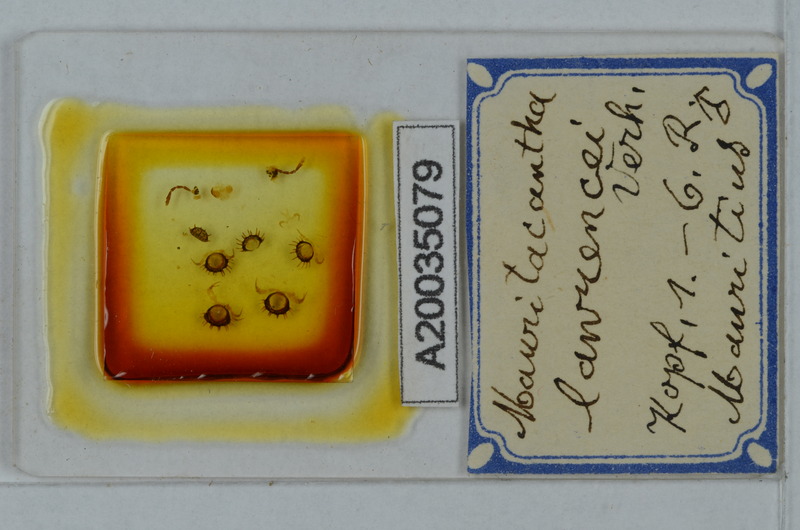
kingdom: Animalia
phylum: Arthropoda
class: Diplopoda
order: Polydesmida
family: Trichopolydesmidae
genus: Mauritacantha
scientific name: Mauritacantha lawrencei
